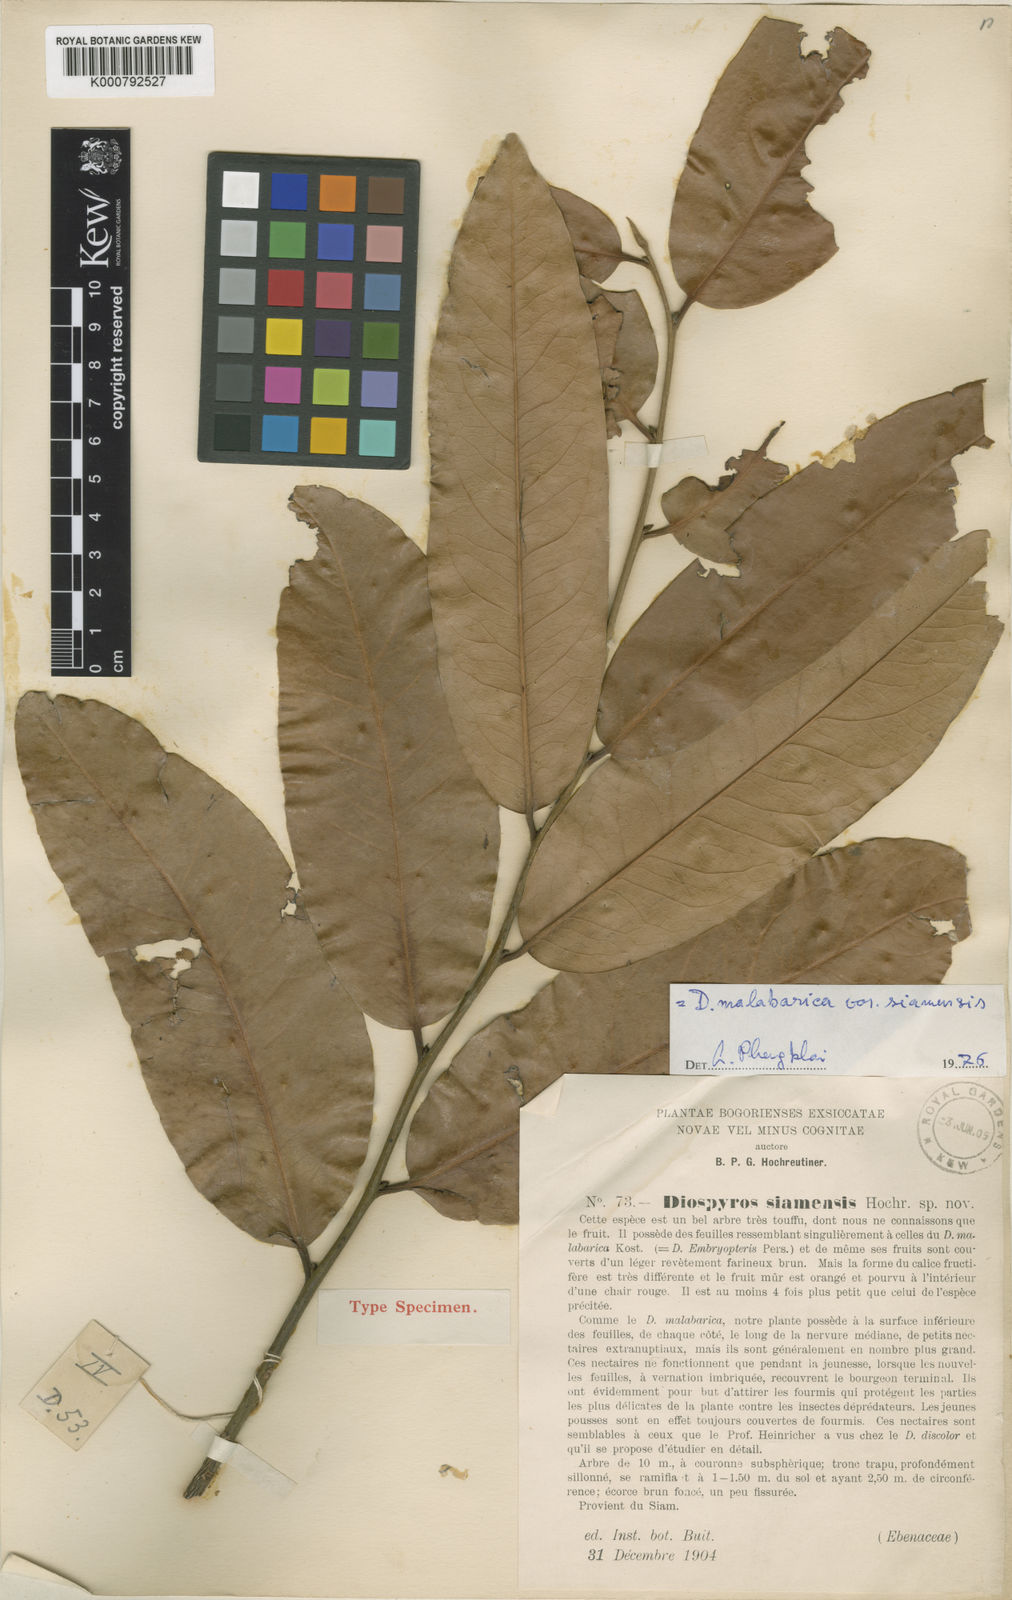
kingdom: Plantae
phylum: Tracheophyta
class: Magnoliopsida
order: Ericales
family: Ebenaceae
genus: Diospyros
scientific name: Diospyros malabarica
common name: Mountain ebony
